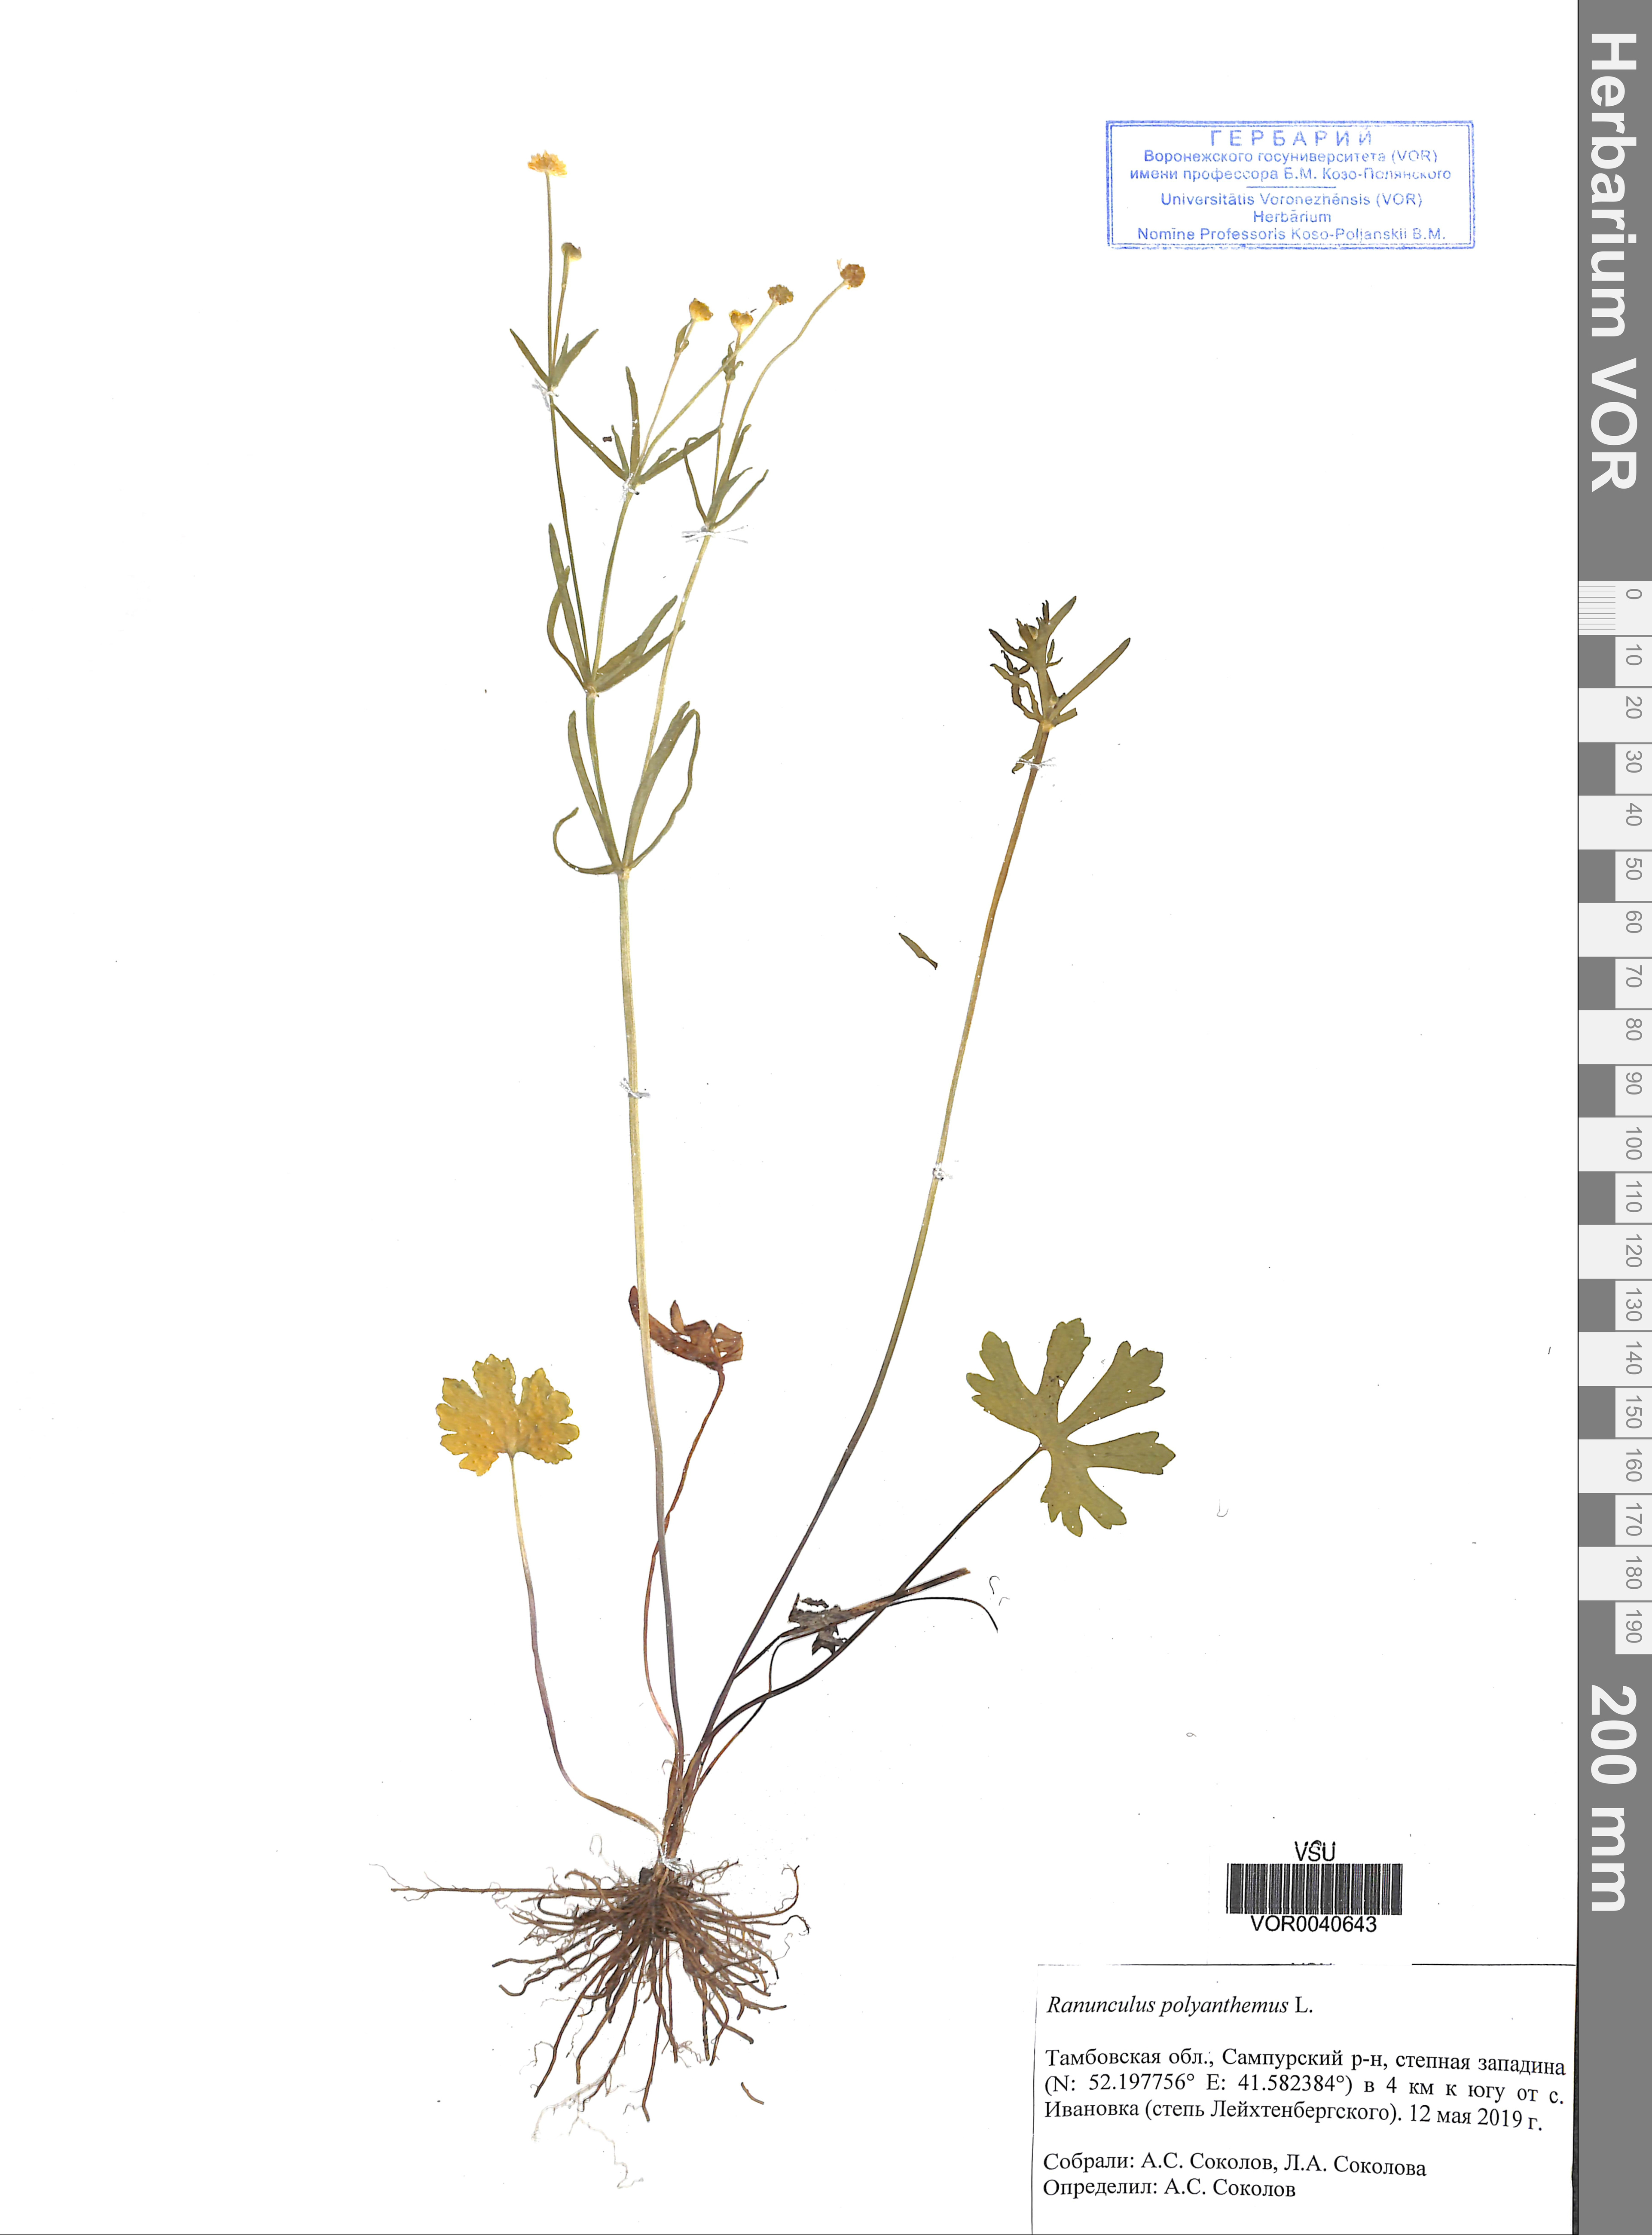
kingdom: Plantae
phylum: Tracheophyta
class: Magnoliopsida
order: Ranunculales
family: Ranunculaceae
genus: Ranunculus
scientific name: Ranunculus polyanthemos
